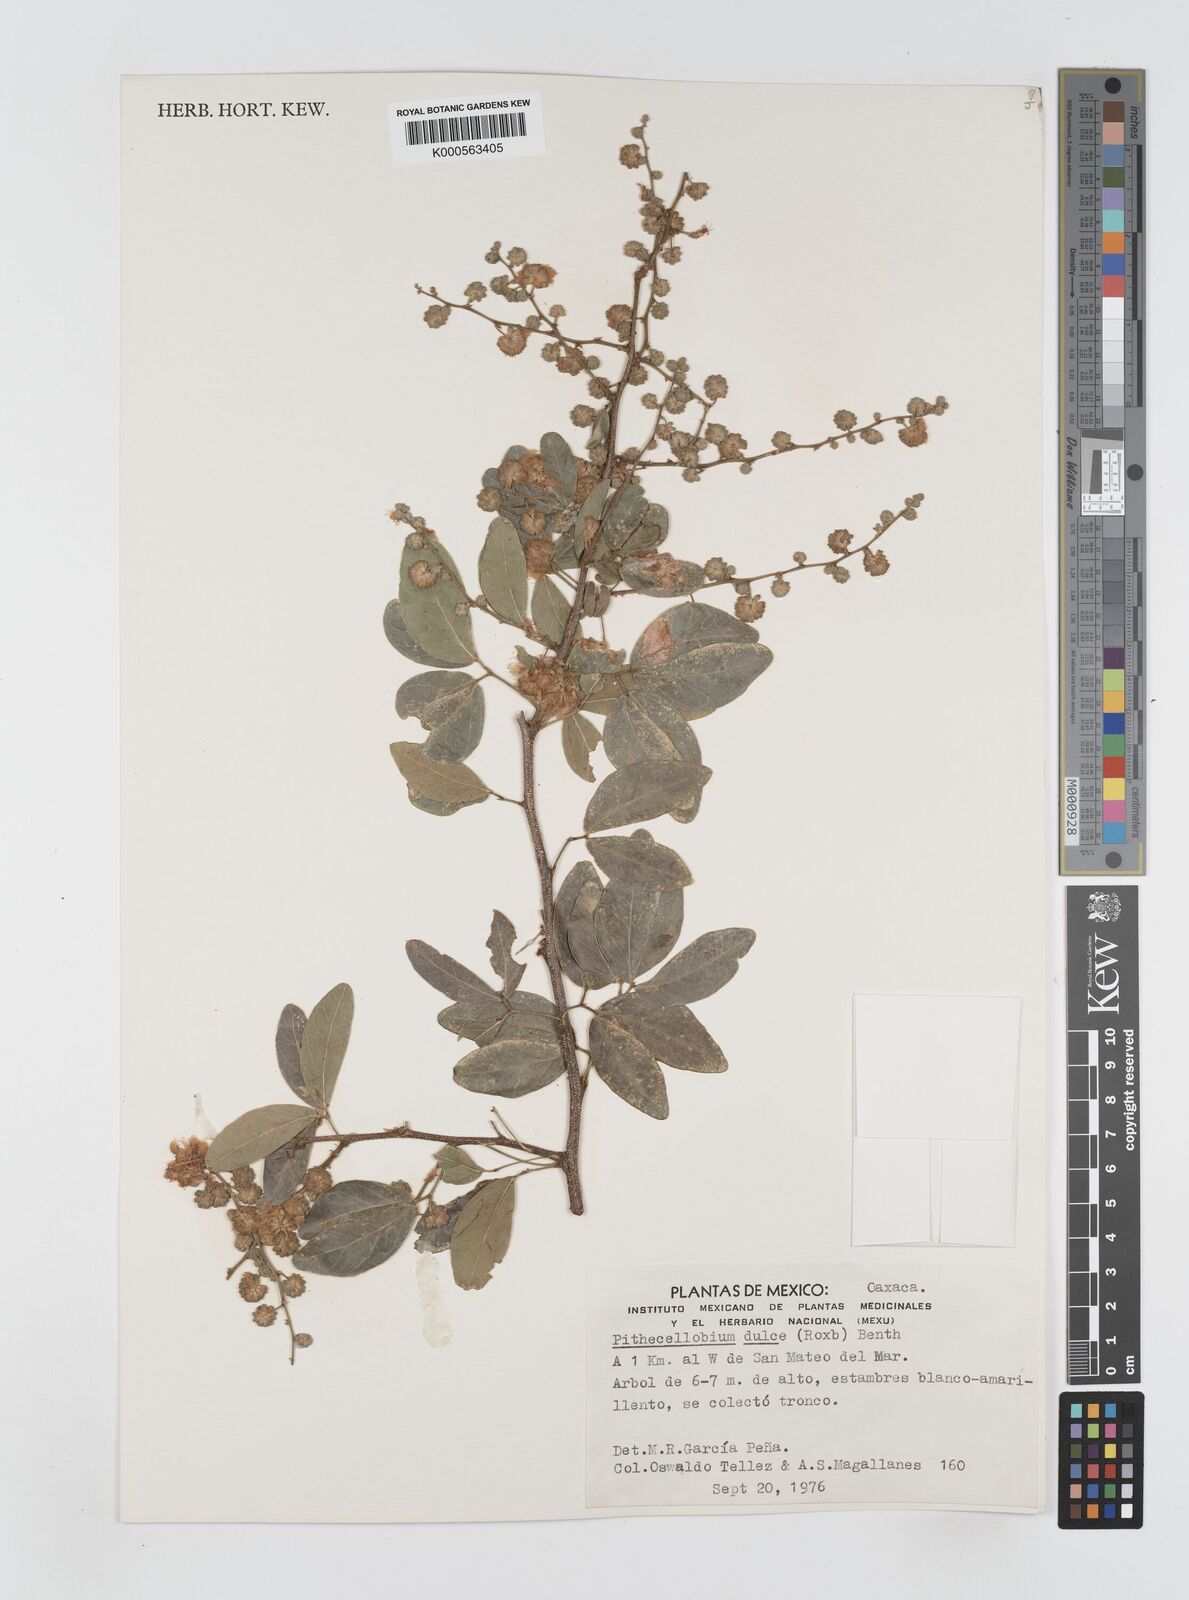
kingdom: Plantae
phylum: Tracheophyta
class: Magnoliopsida
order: Fabales
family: Fabaceae
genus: Pithecellobium
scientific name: Pithecellobium dulce
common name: Monkeypod
